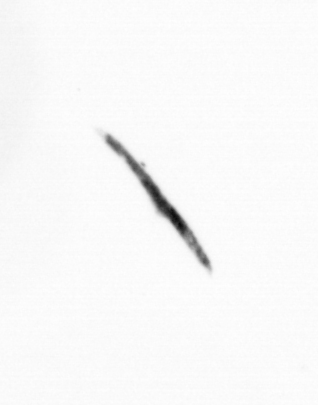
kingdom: Bacteria
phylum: Cyanobacteria
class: Cyanobacteriia
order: Cyanobacteriales
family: Microcoleaceae
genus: Trichodesmium
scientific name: Trichodesmium
